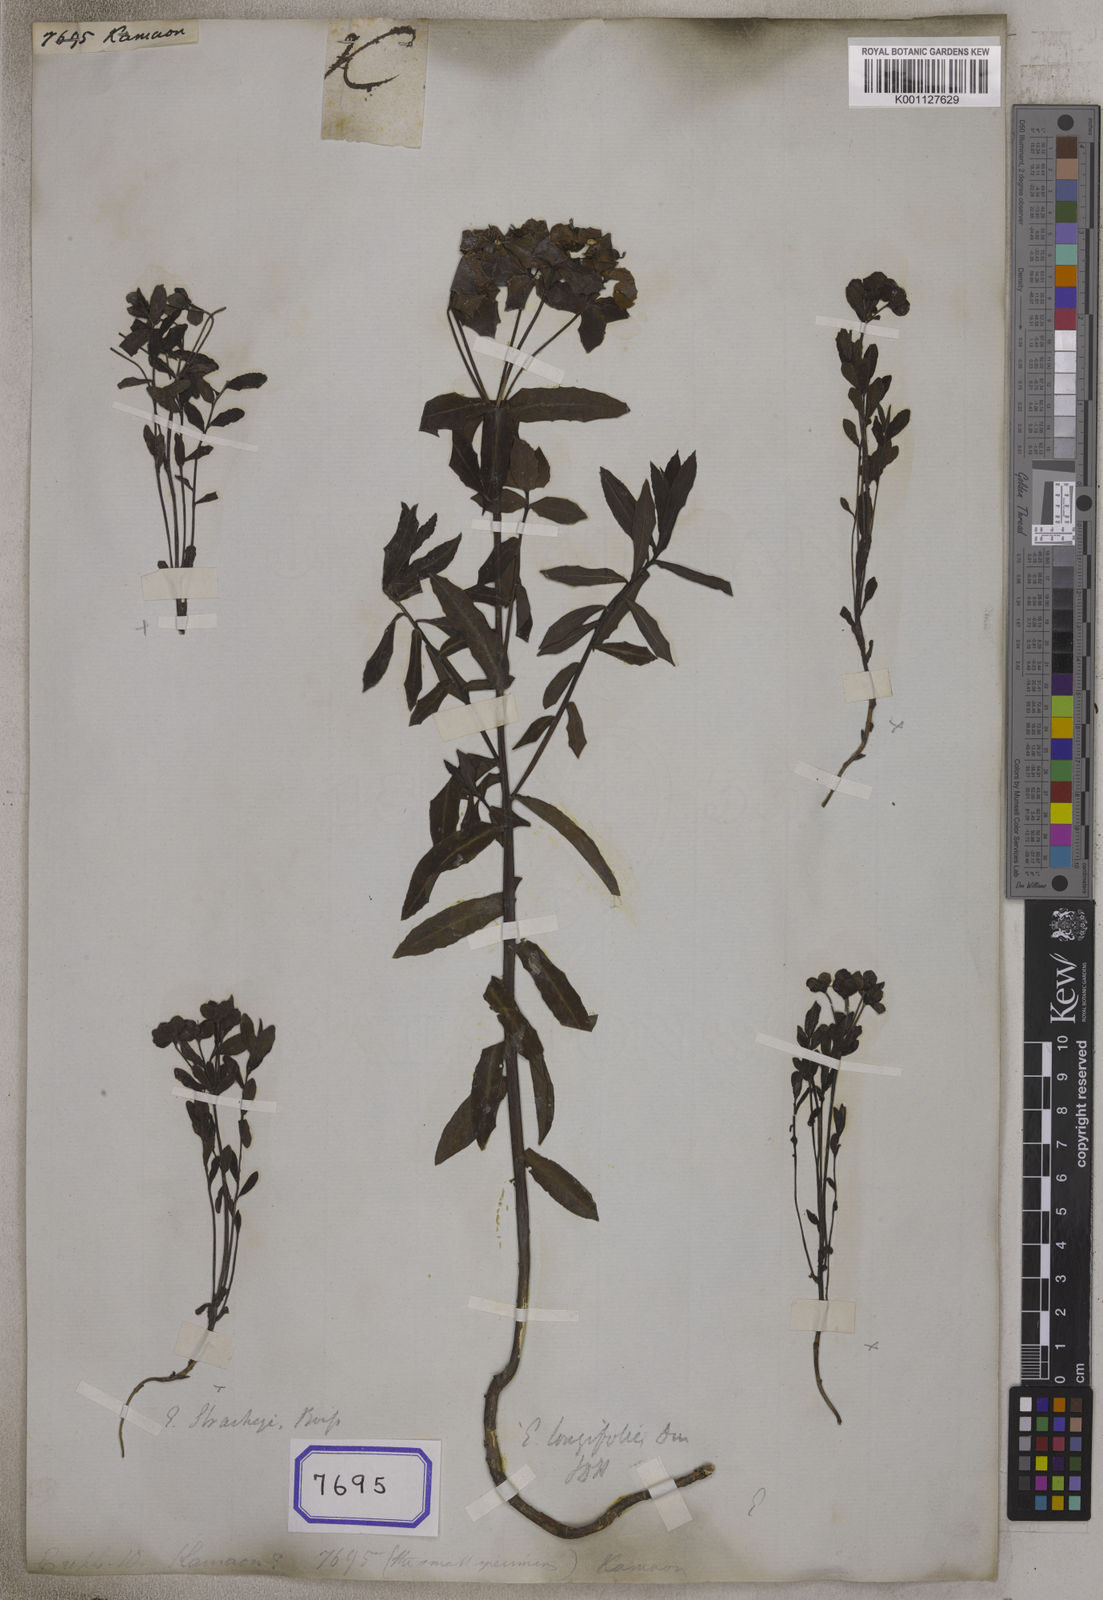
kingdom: Plantae
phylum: Tracheophyta
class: Magnoliopsida
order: Malpighiales
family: Euphorbiaceae
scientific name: Euphorbiaceae
